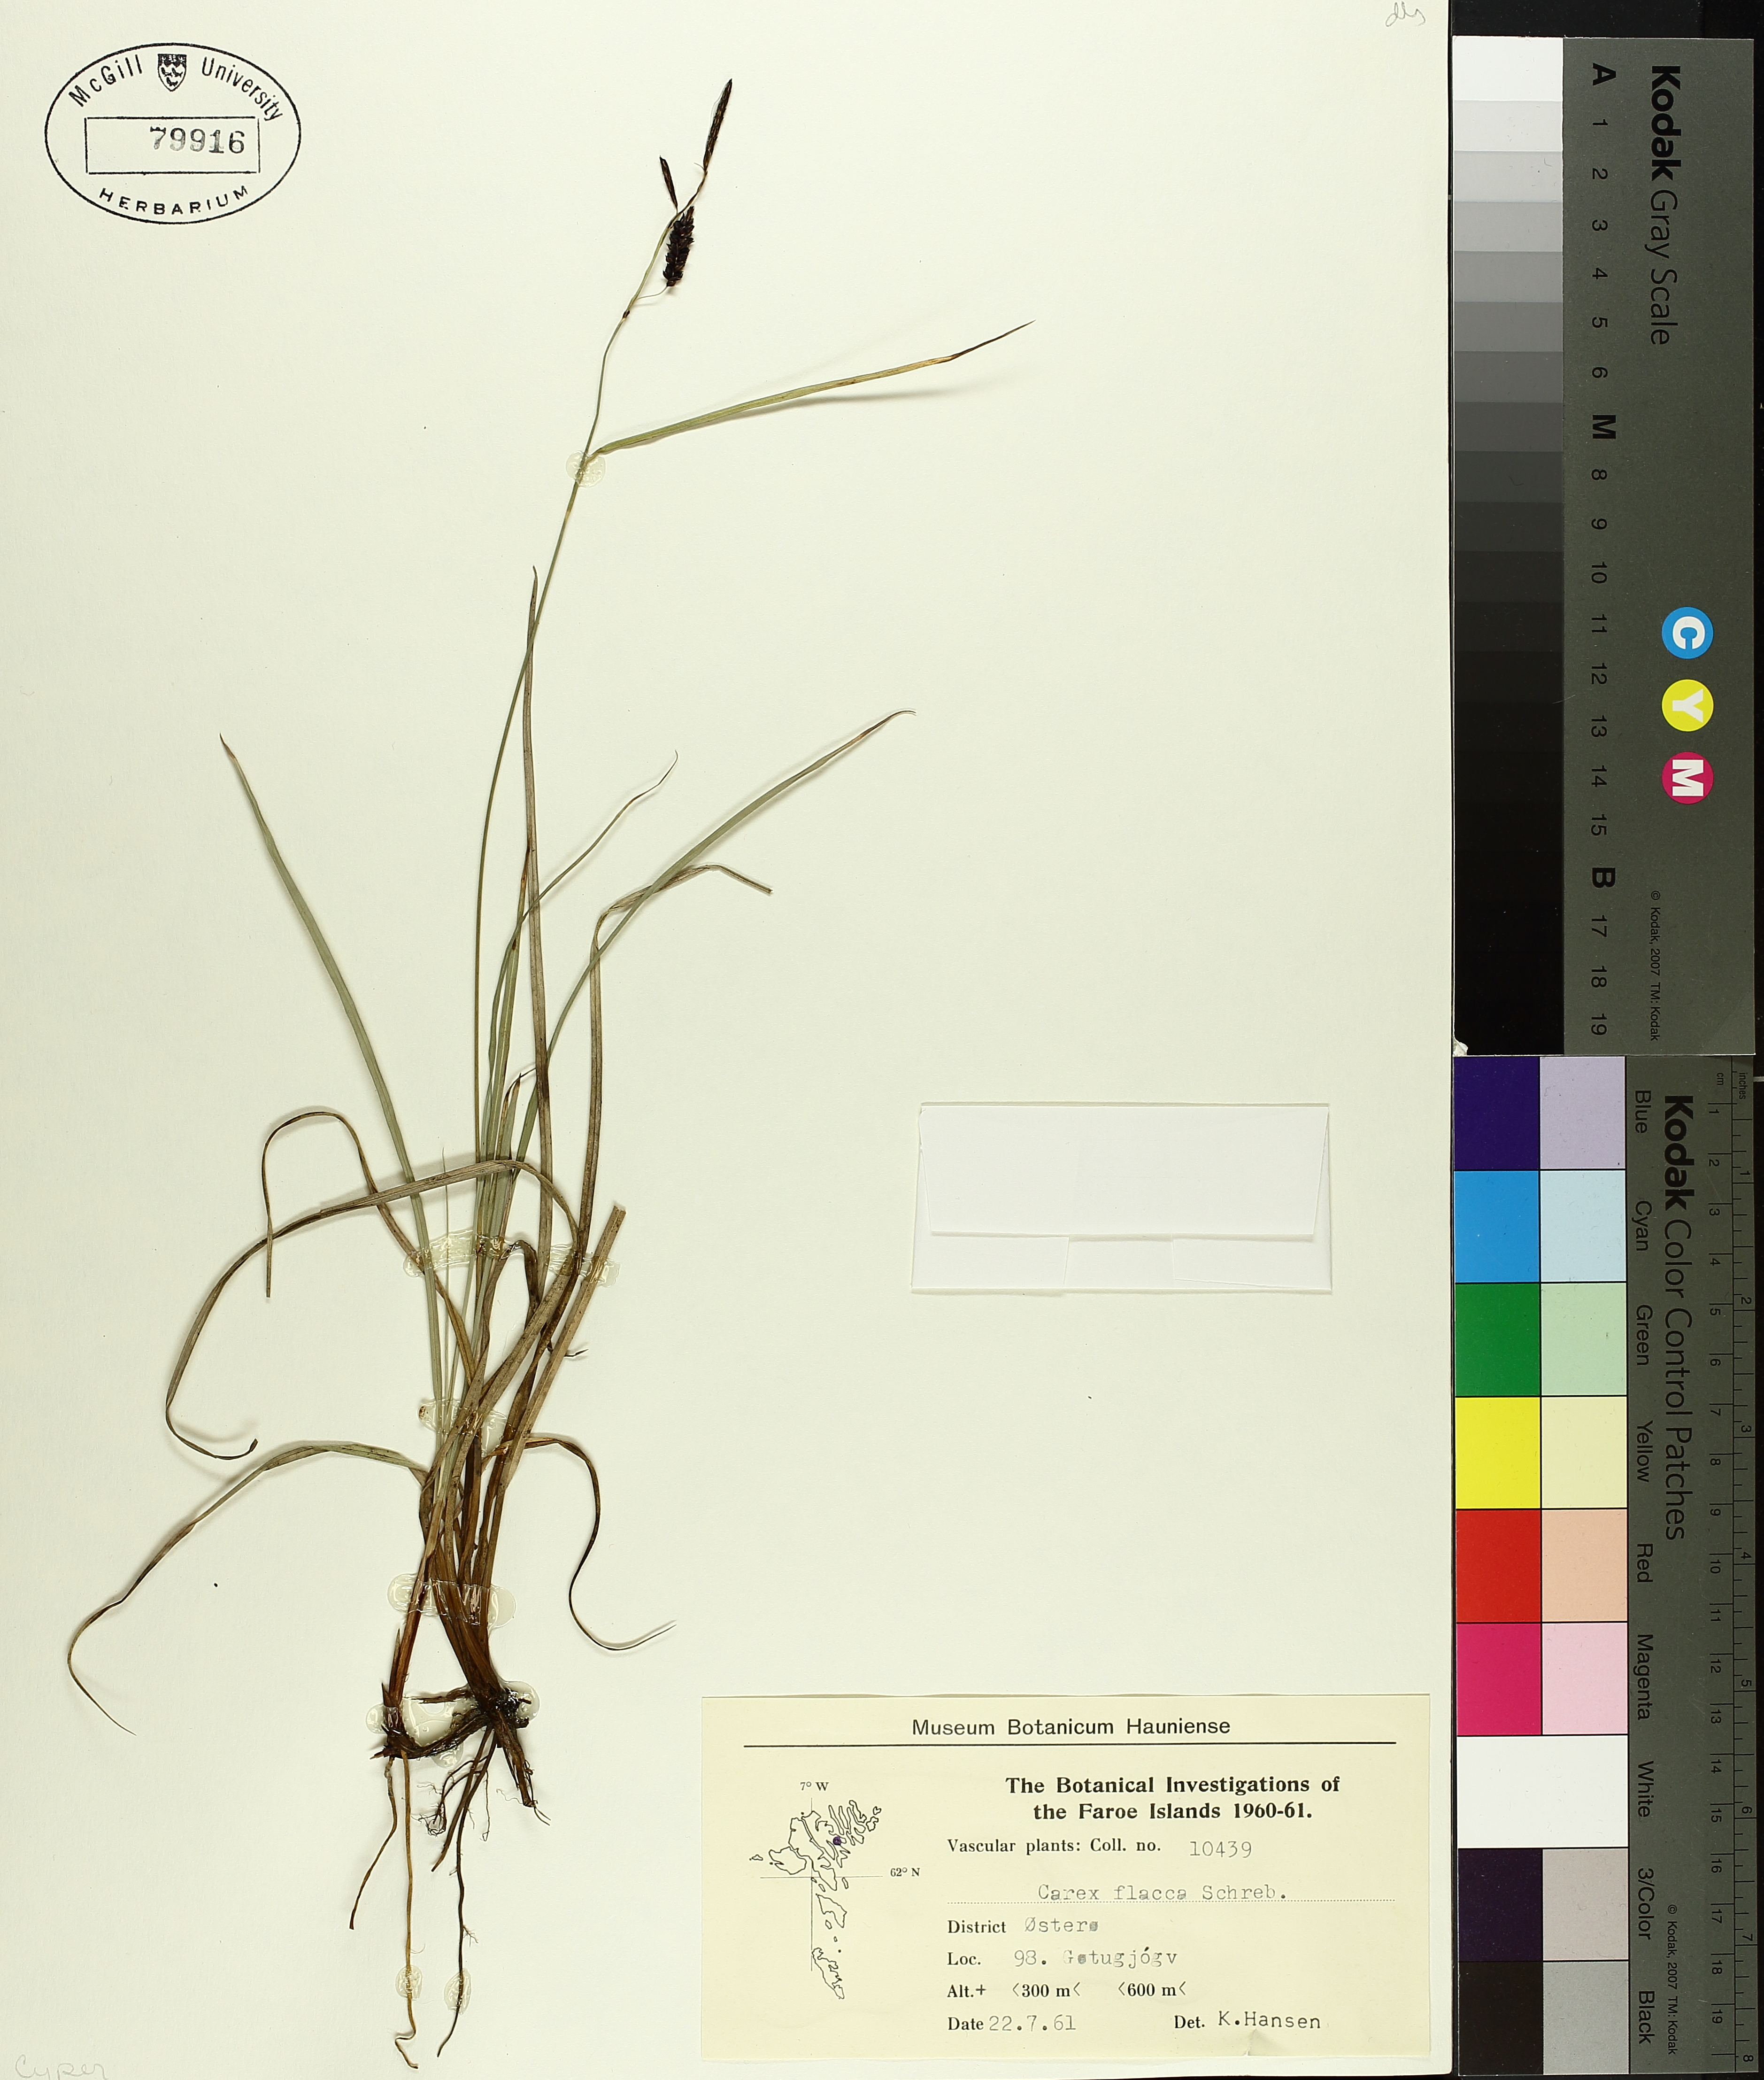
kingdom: Plantae
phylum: Tracheophyta
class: Liliopsida
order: Poales
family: Cyperaceae
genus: Carex
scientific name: Carex flacca
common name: Glaucous sedge
